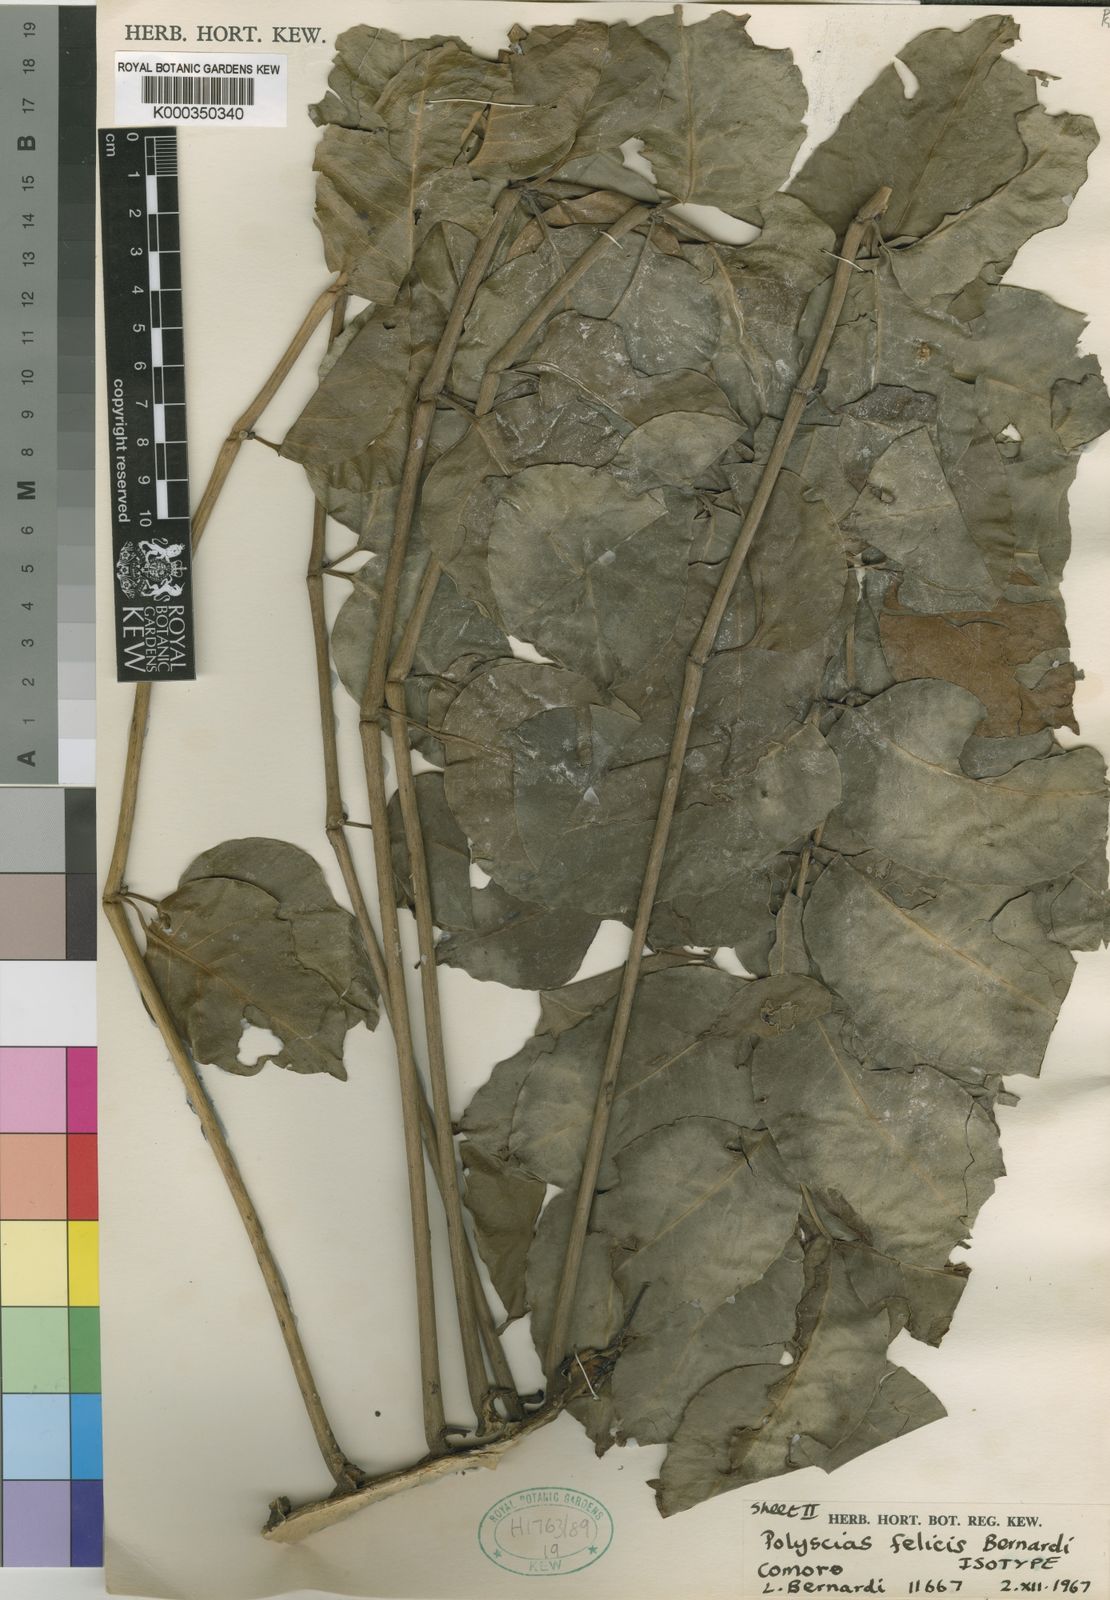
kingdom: Plantae
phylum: Tracheophyta
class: Magnoliopsida
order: Apiales
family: Araliaceae
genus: Polyscias
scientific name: Polyscias felicis
